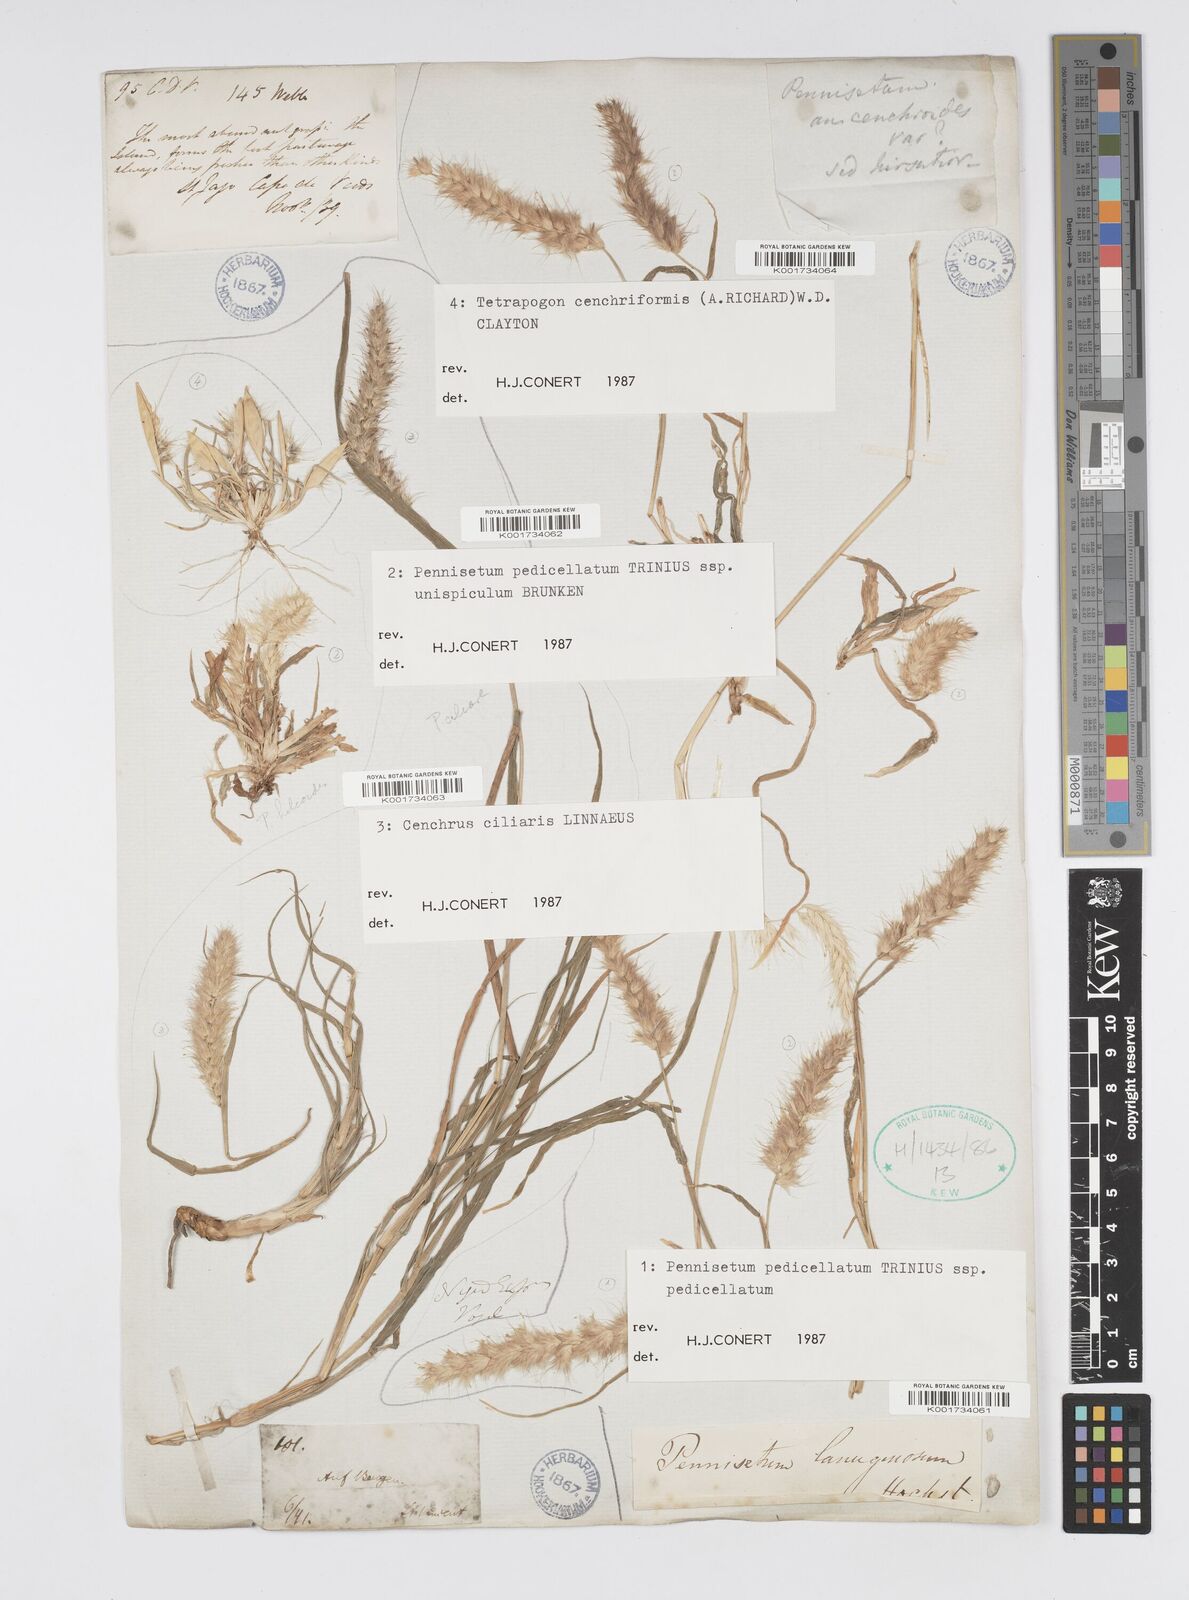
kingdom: Plantae
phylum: Tracheophyta
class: Liliopsida
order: Poales
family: Poaceae
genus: Cenchrus
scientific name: Cenchrus pedicellatus
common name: Hairy fountain grass
